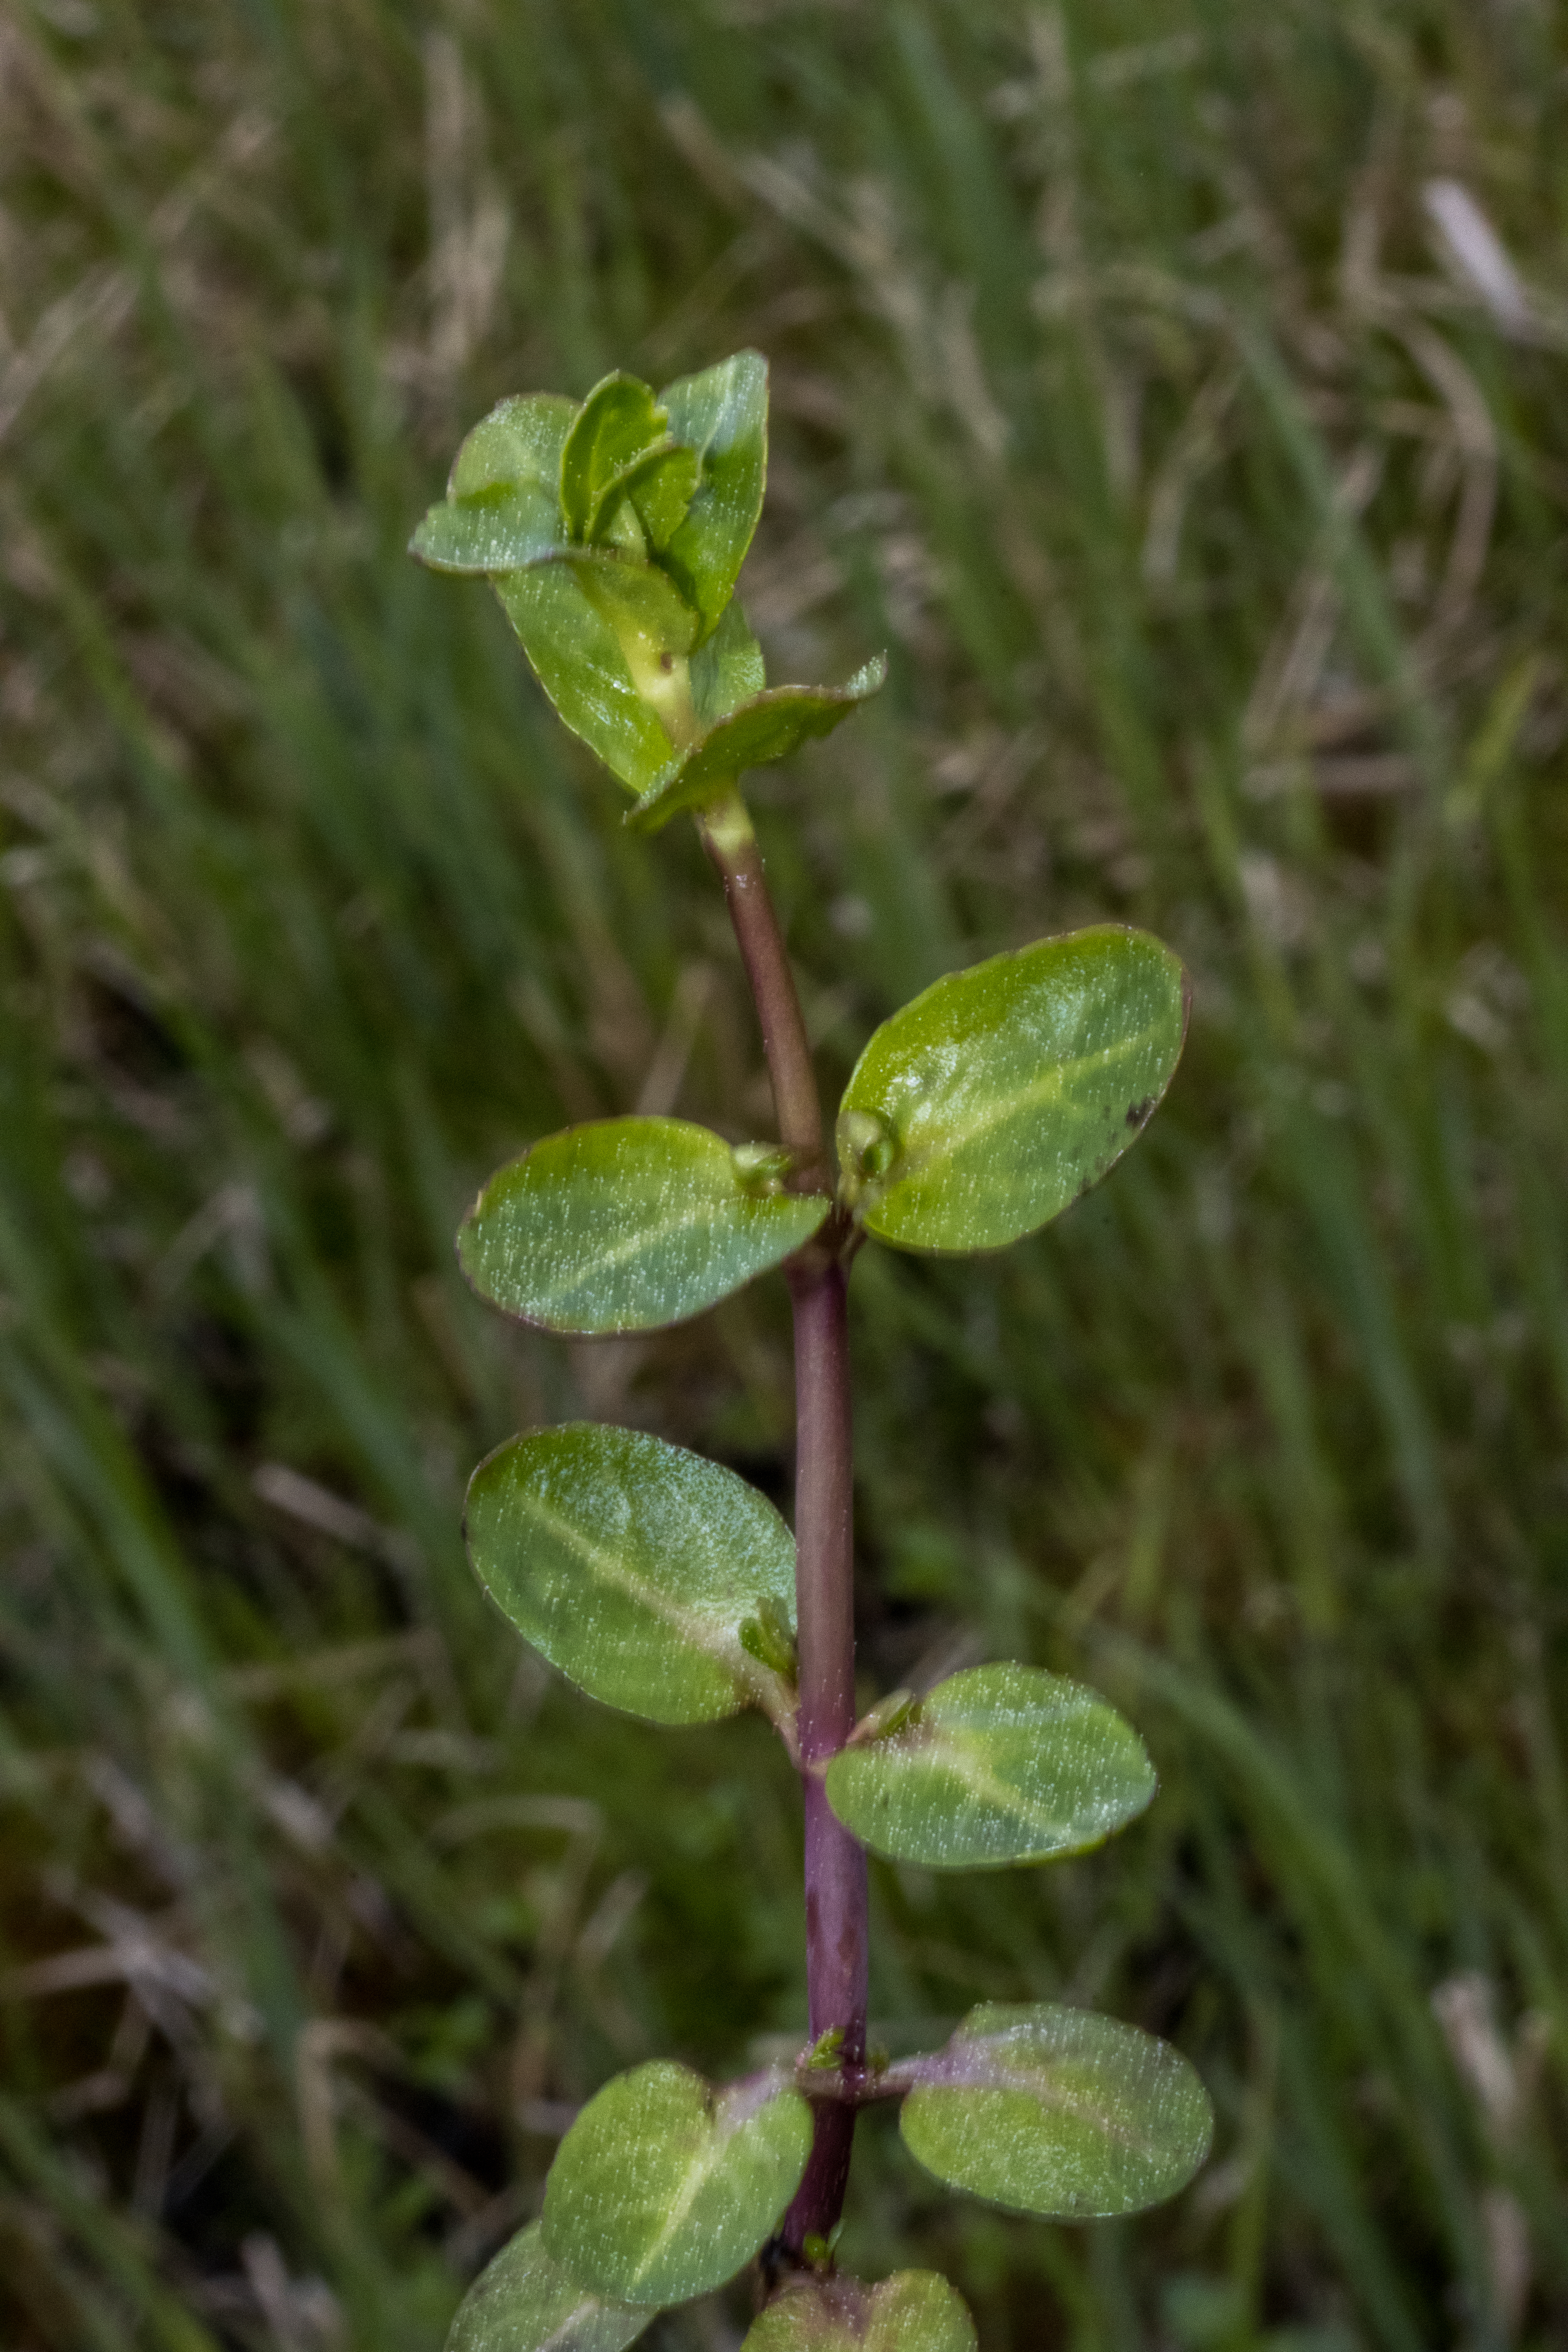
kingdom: Plantae
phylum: Tracheophyta
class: Magnoliopsida
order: Lamiales
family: Plantaginaceae
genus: Veronica
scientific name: Veronica beccabunga
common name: Tykbladet ærenpris
